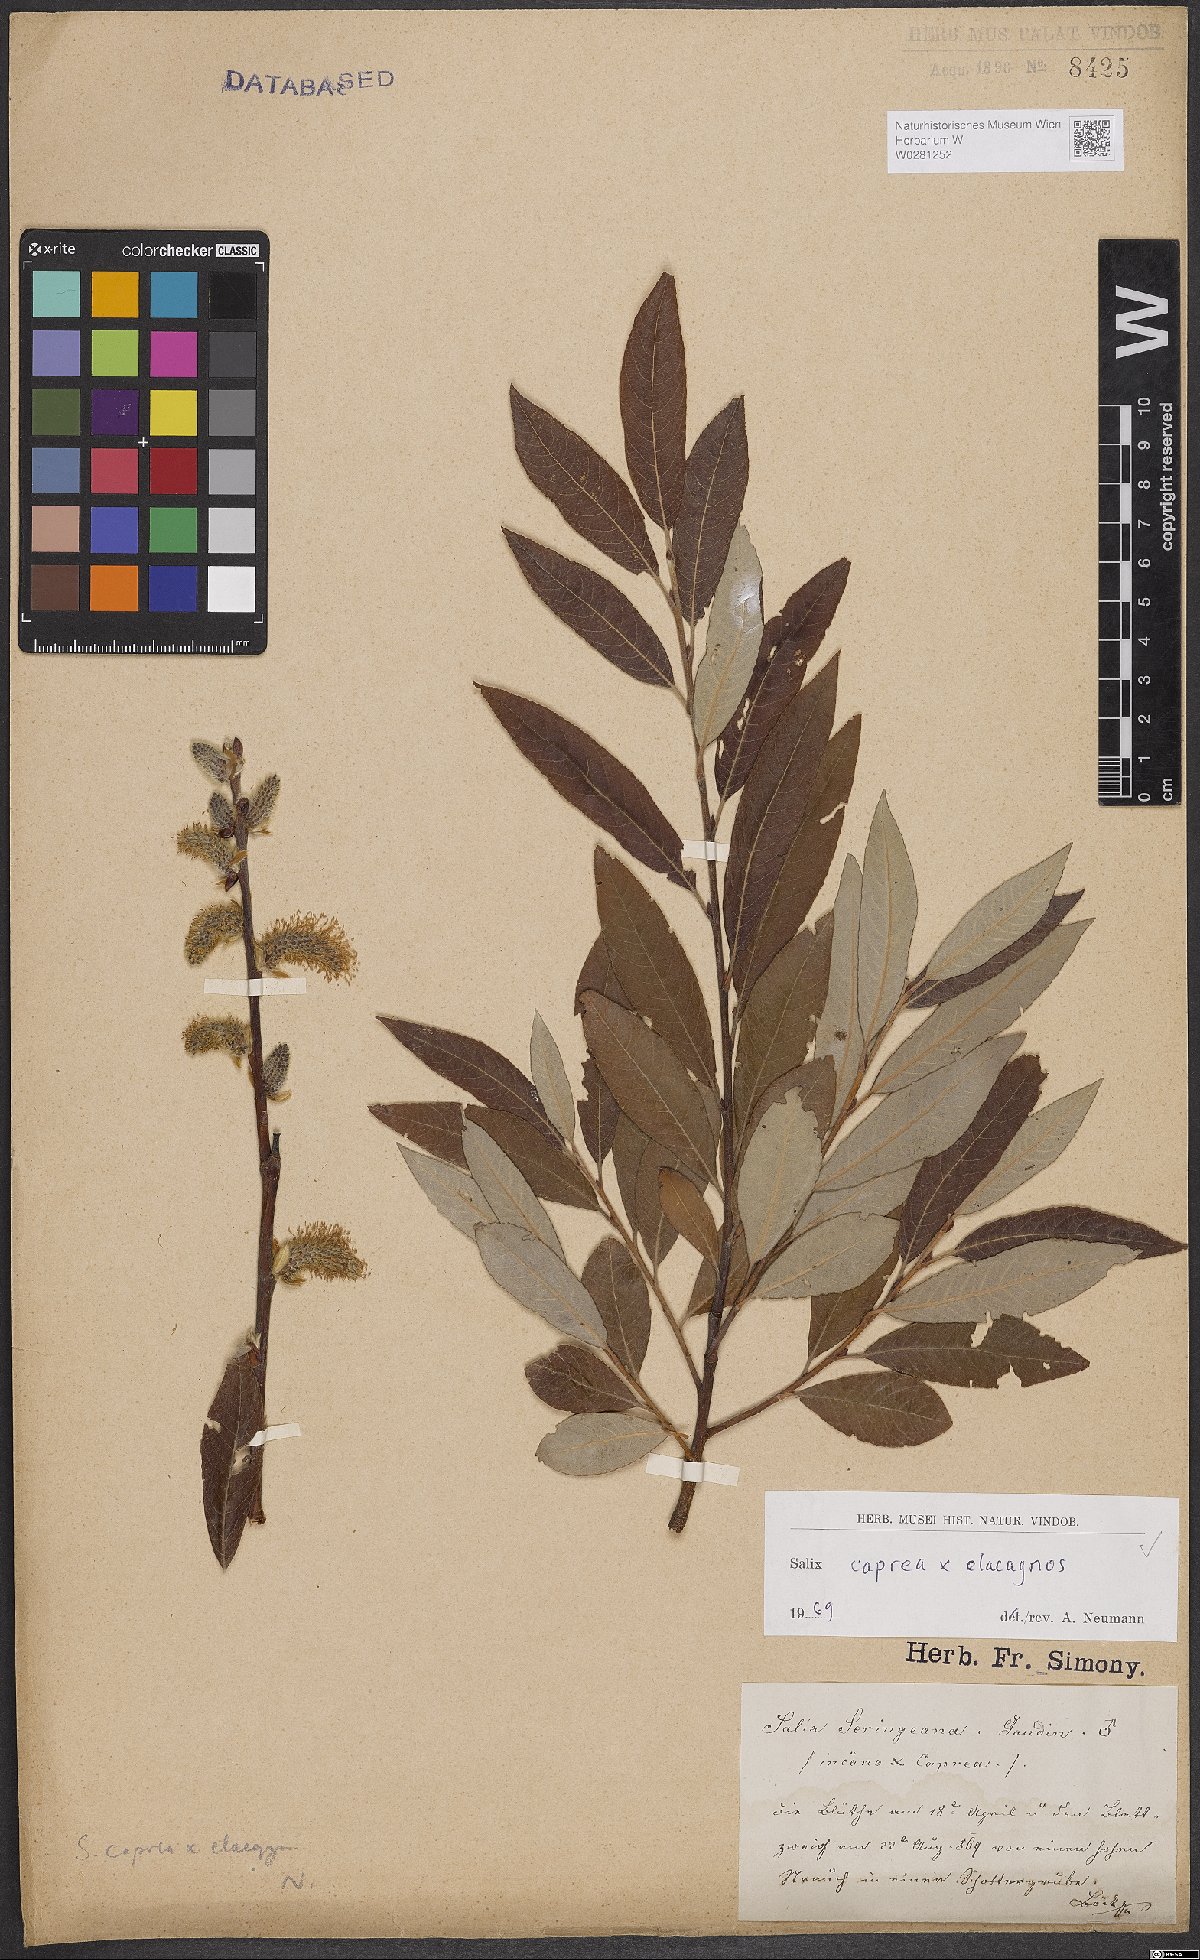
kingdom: Plantae
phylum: Tracheophyta
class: Magnoliopsida
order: Malpighiales
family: Salicaceae
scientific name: Salicaceae
